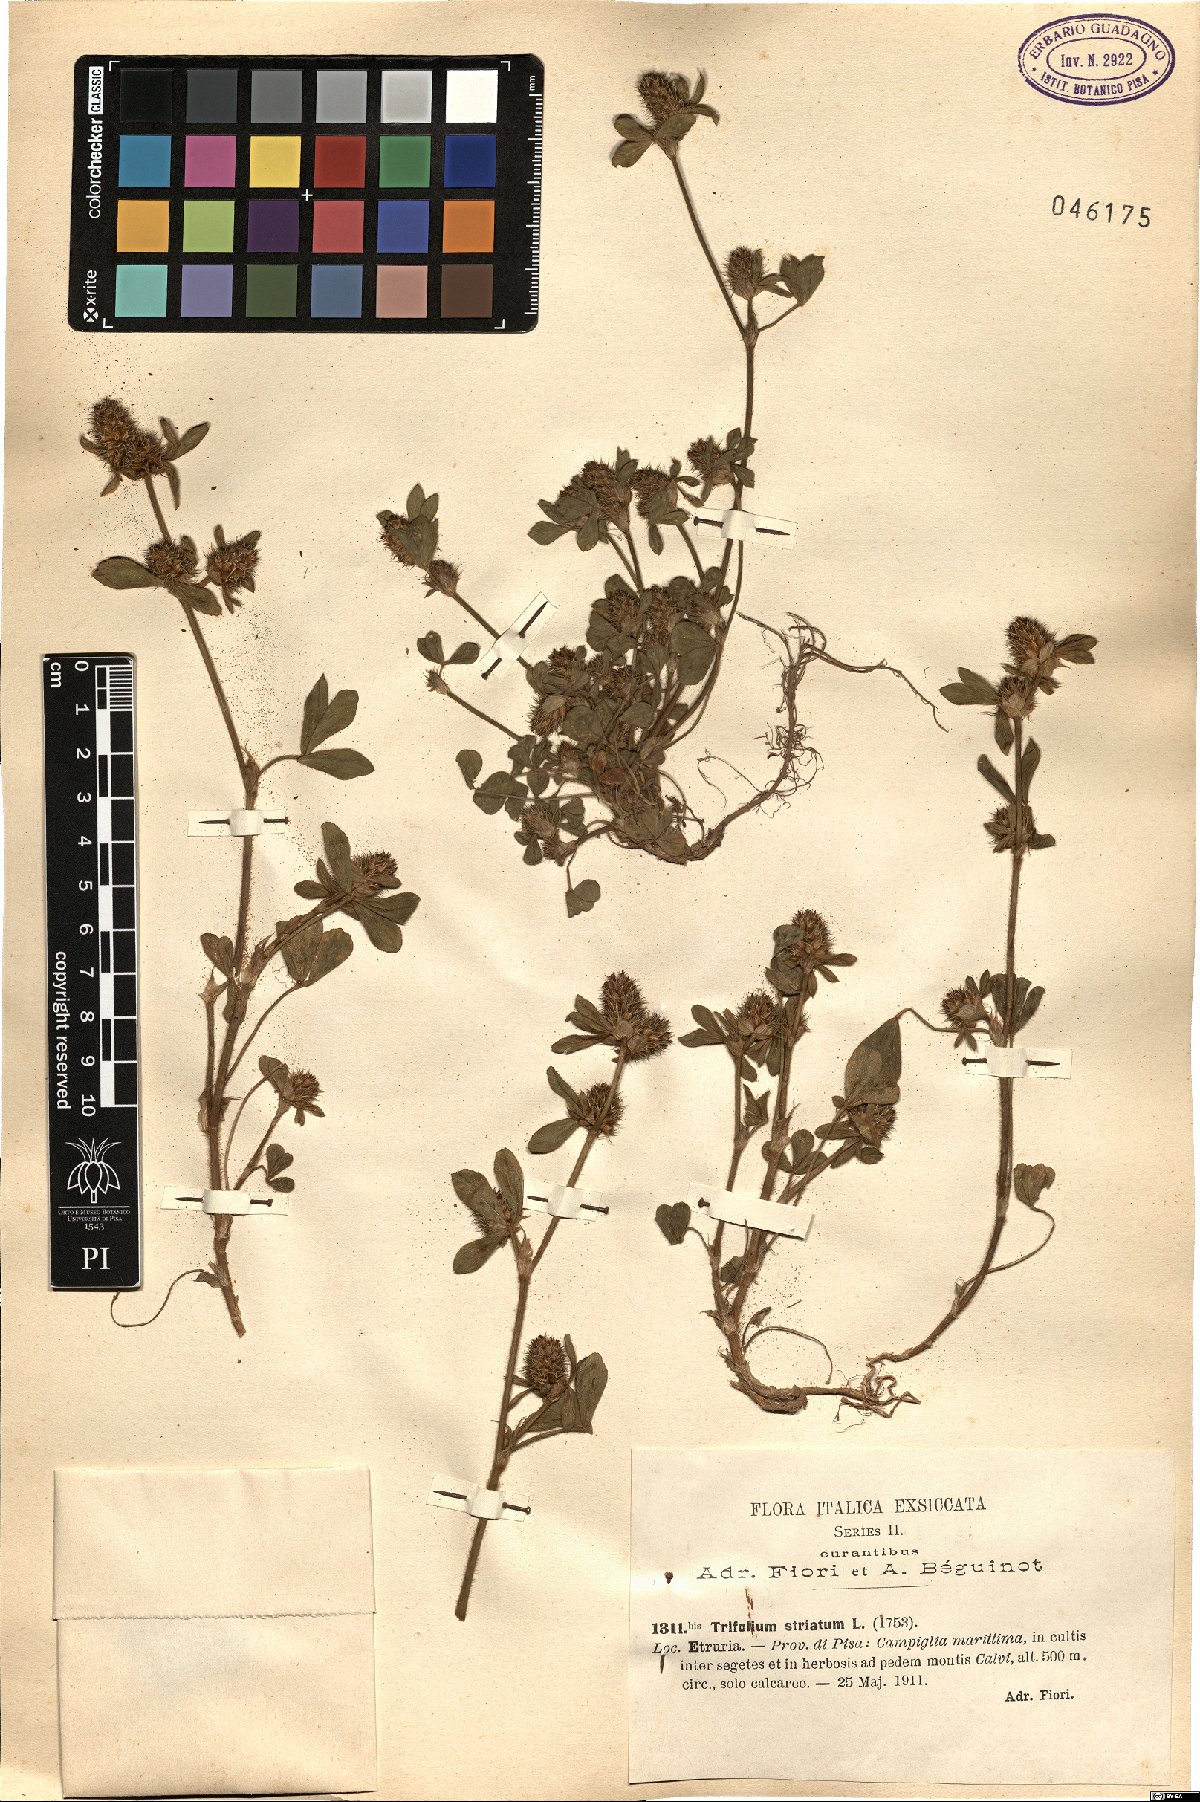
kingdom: Plantae
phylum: Tracheophyta
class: Magnoliopsida
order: Fabales
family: Fabaceae
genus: Trifolium
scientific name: Trifolium striatum
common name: Knotted clover
